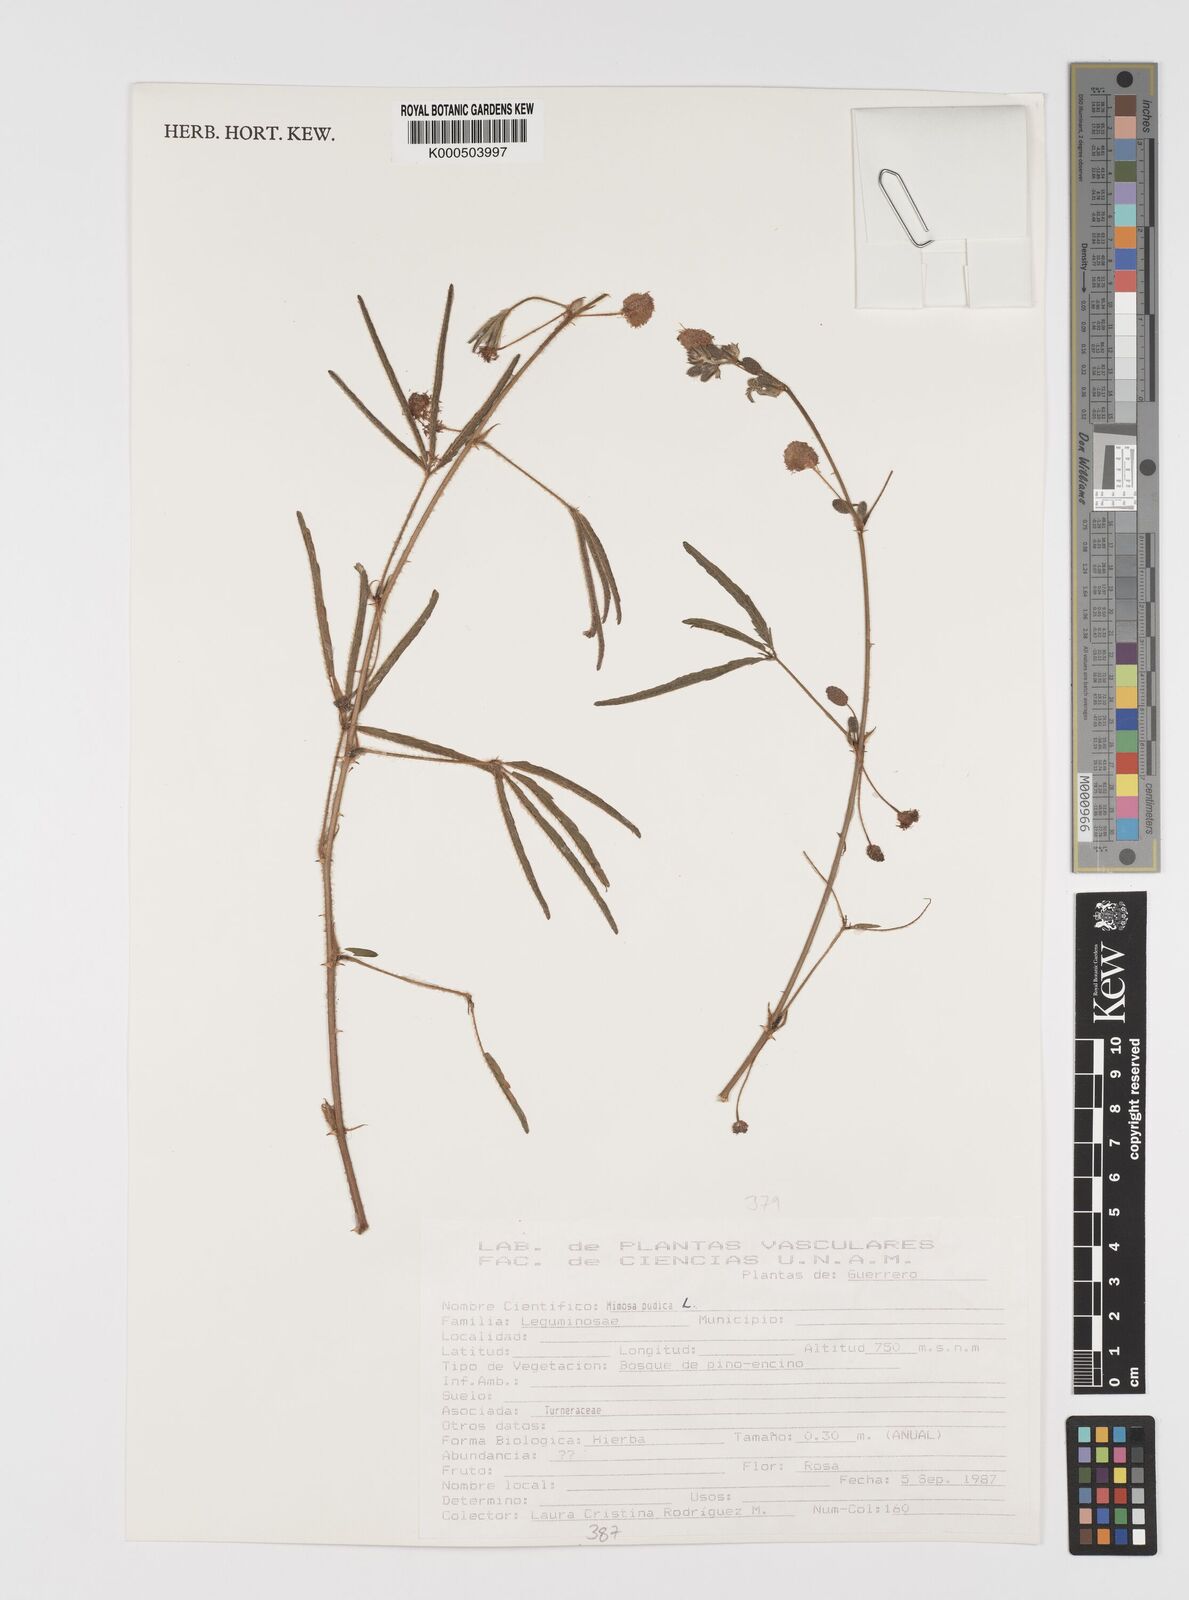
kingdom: Plantae
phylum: Tracheophyta
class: Magnoliopsida
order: Fabales
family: Fabaceae
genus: Mimosa
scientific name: Mimosa pudica
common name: Sensitive plant
